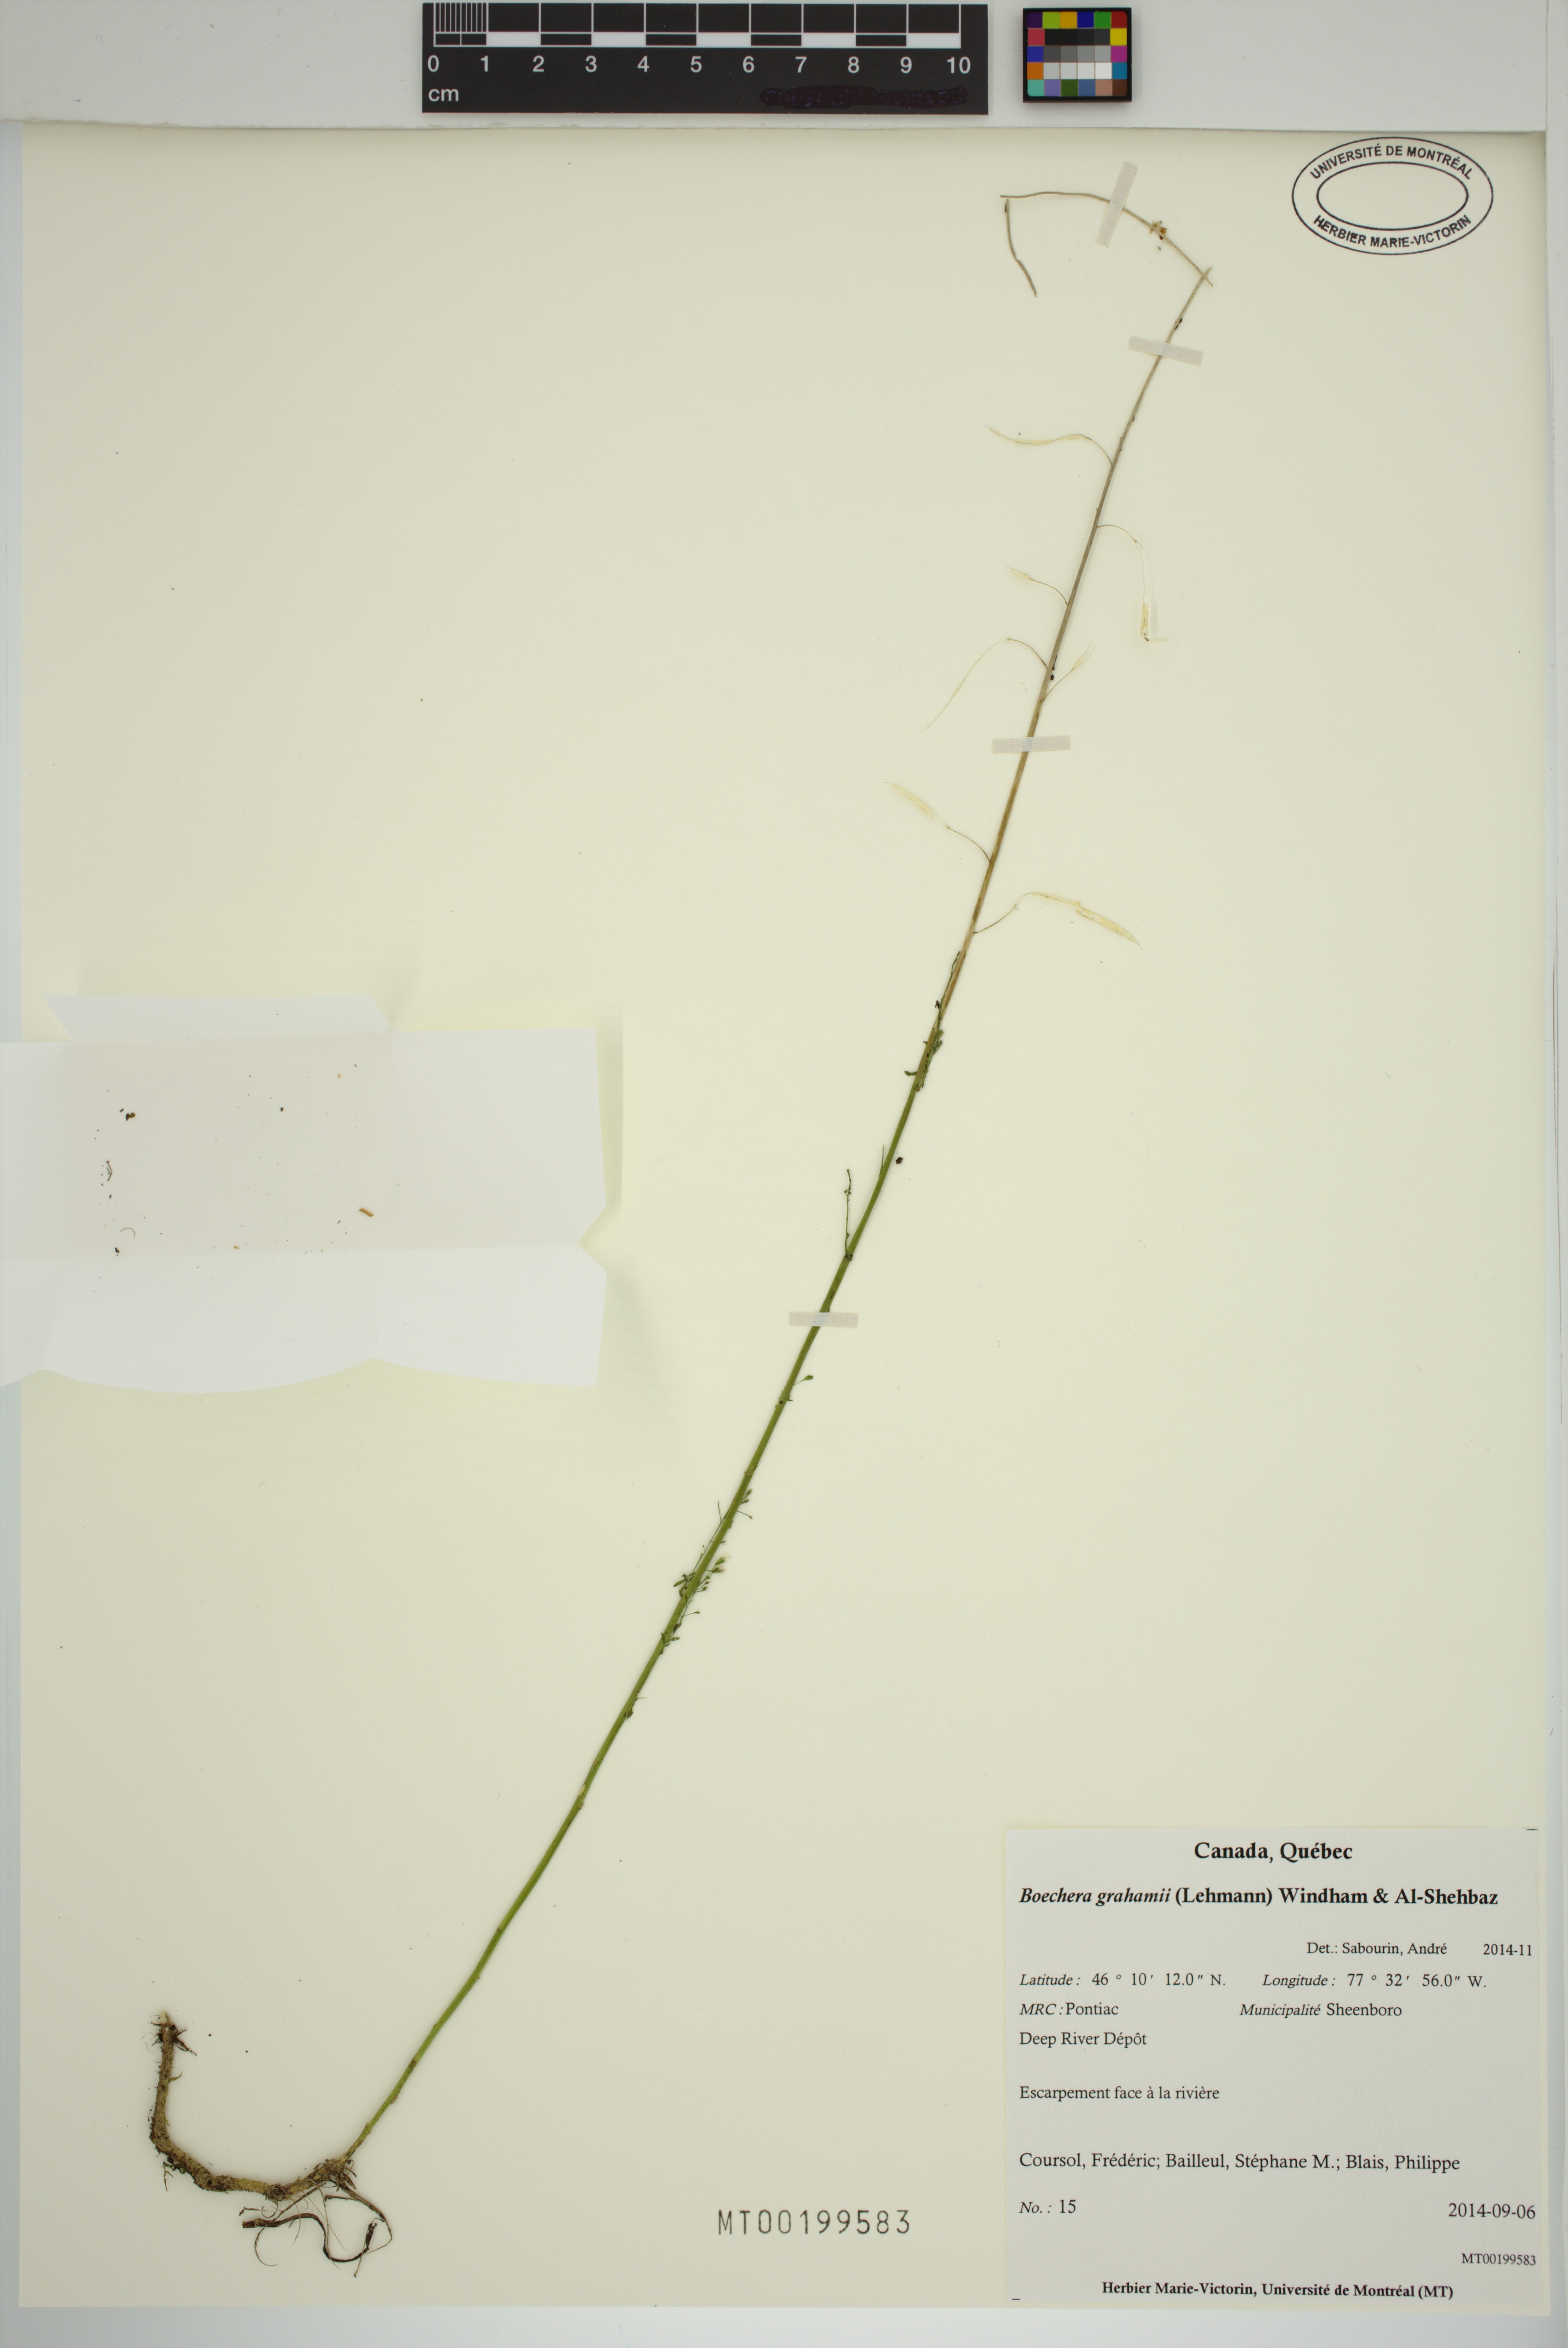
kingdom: Plantae
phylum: Tracheophyta
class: Magnoliopsida
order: Brassicales
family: Brassicaceae
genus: Boechera
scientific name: Boechera
